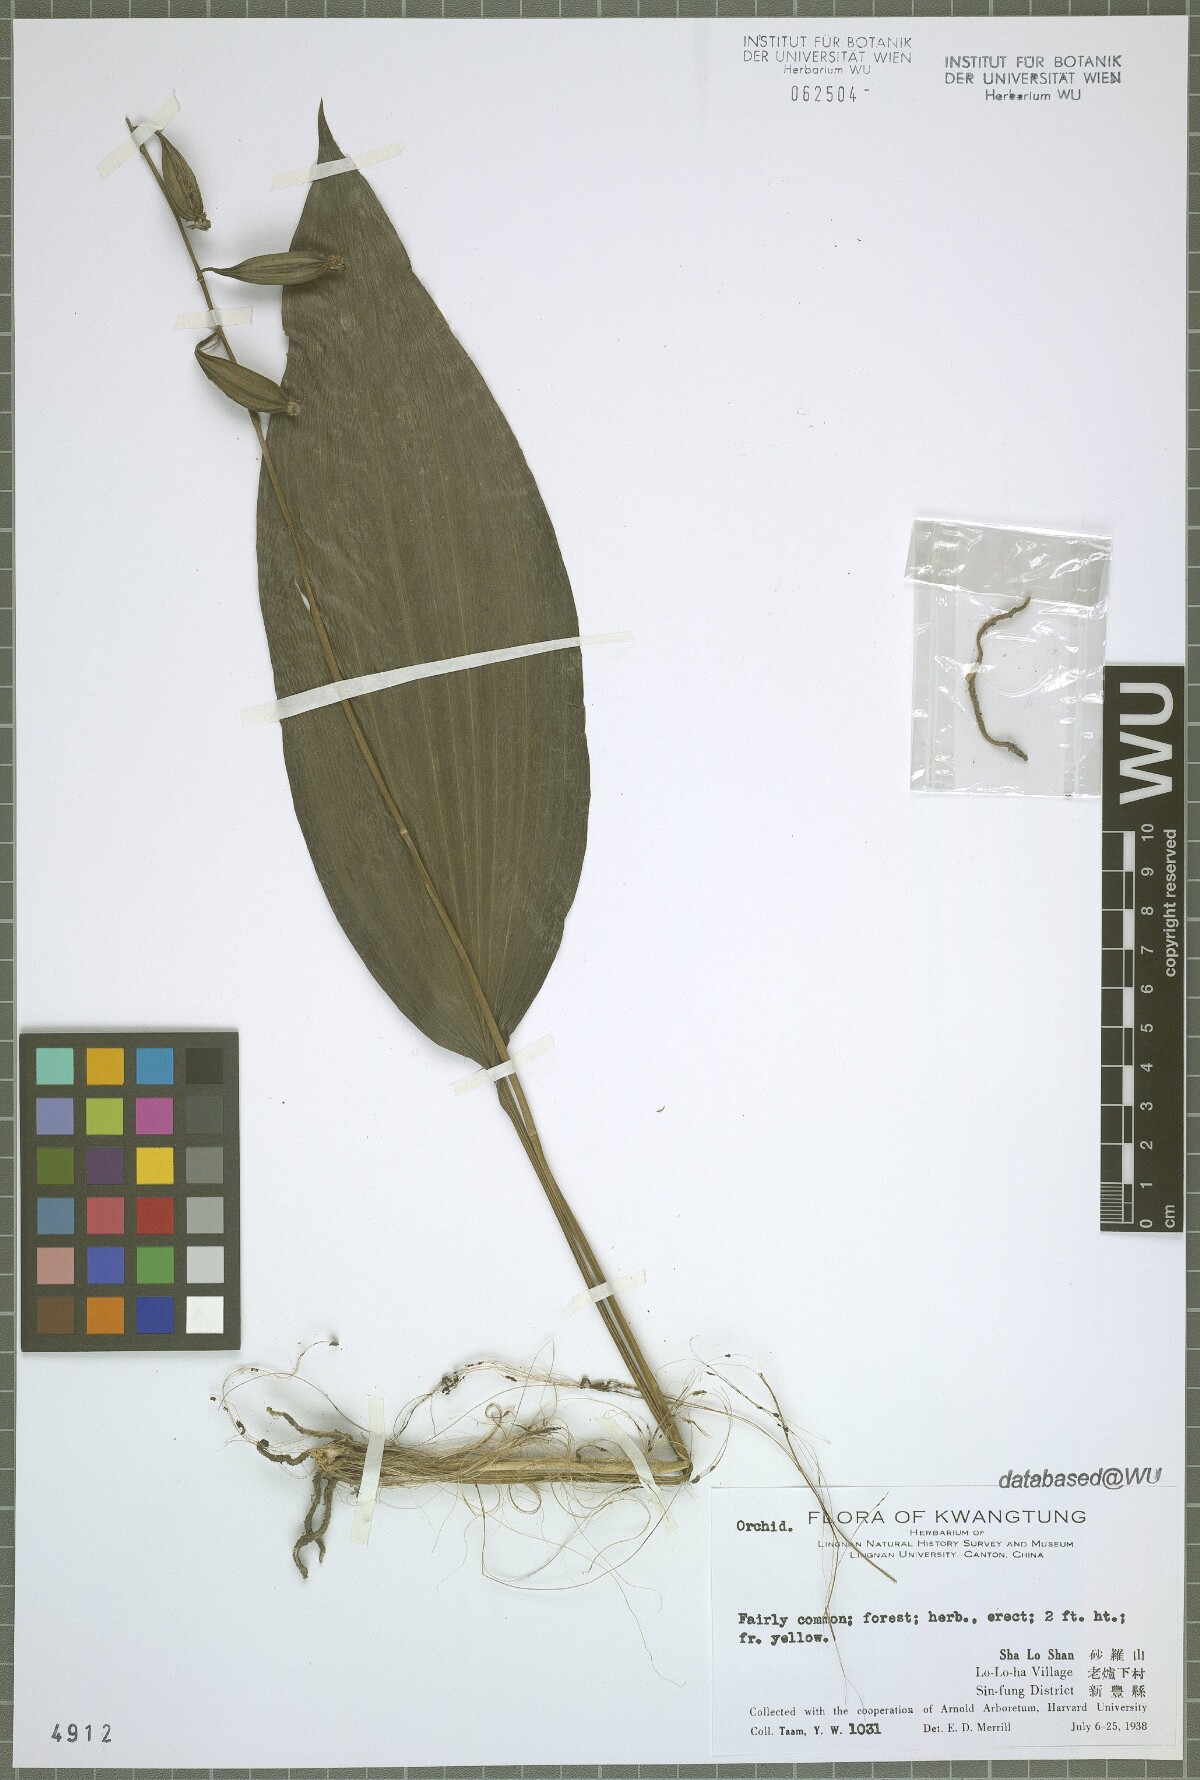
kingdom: Plantae
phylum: Tracheophyta
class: Liliopsida
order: Asparagales
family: Orchidaceae
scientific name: Orchidaceae
